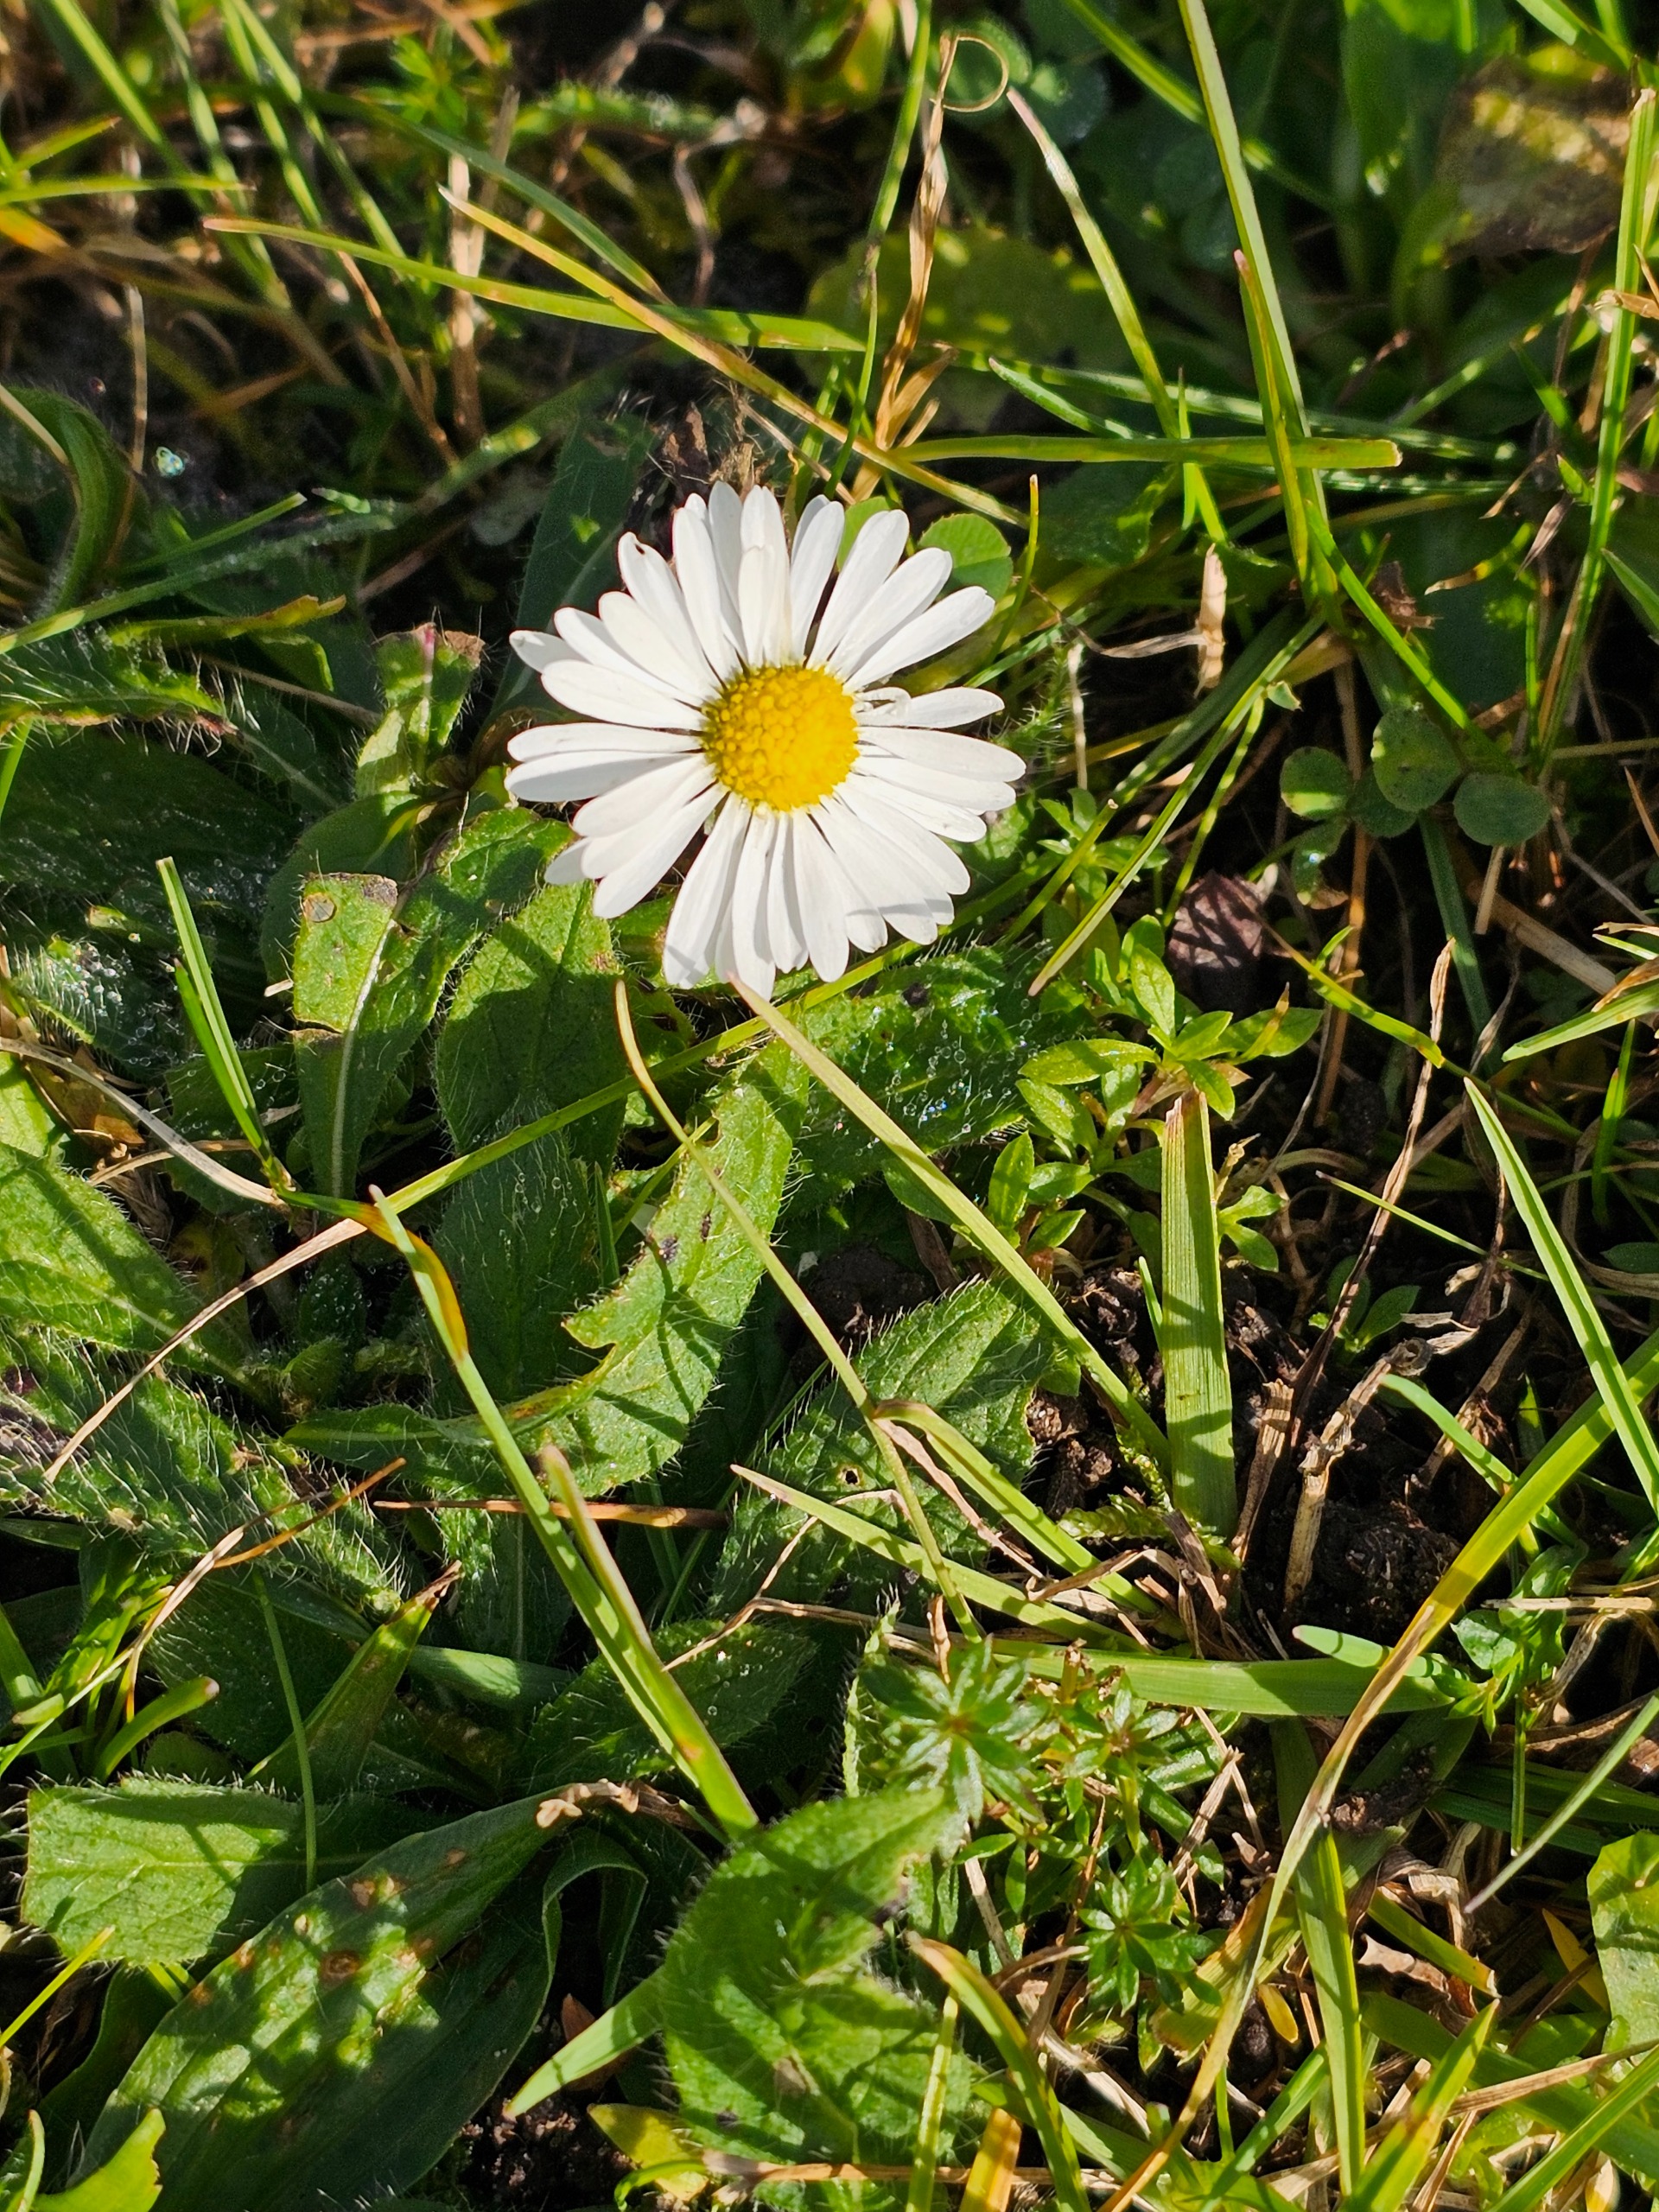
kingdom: Plantae
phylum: Tracheophyta
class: Magnoliopsida
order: Asterales
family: Asteraceae
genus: Bellis
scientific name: Bellis perennis
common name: Tusindfryd
